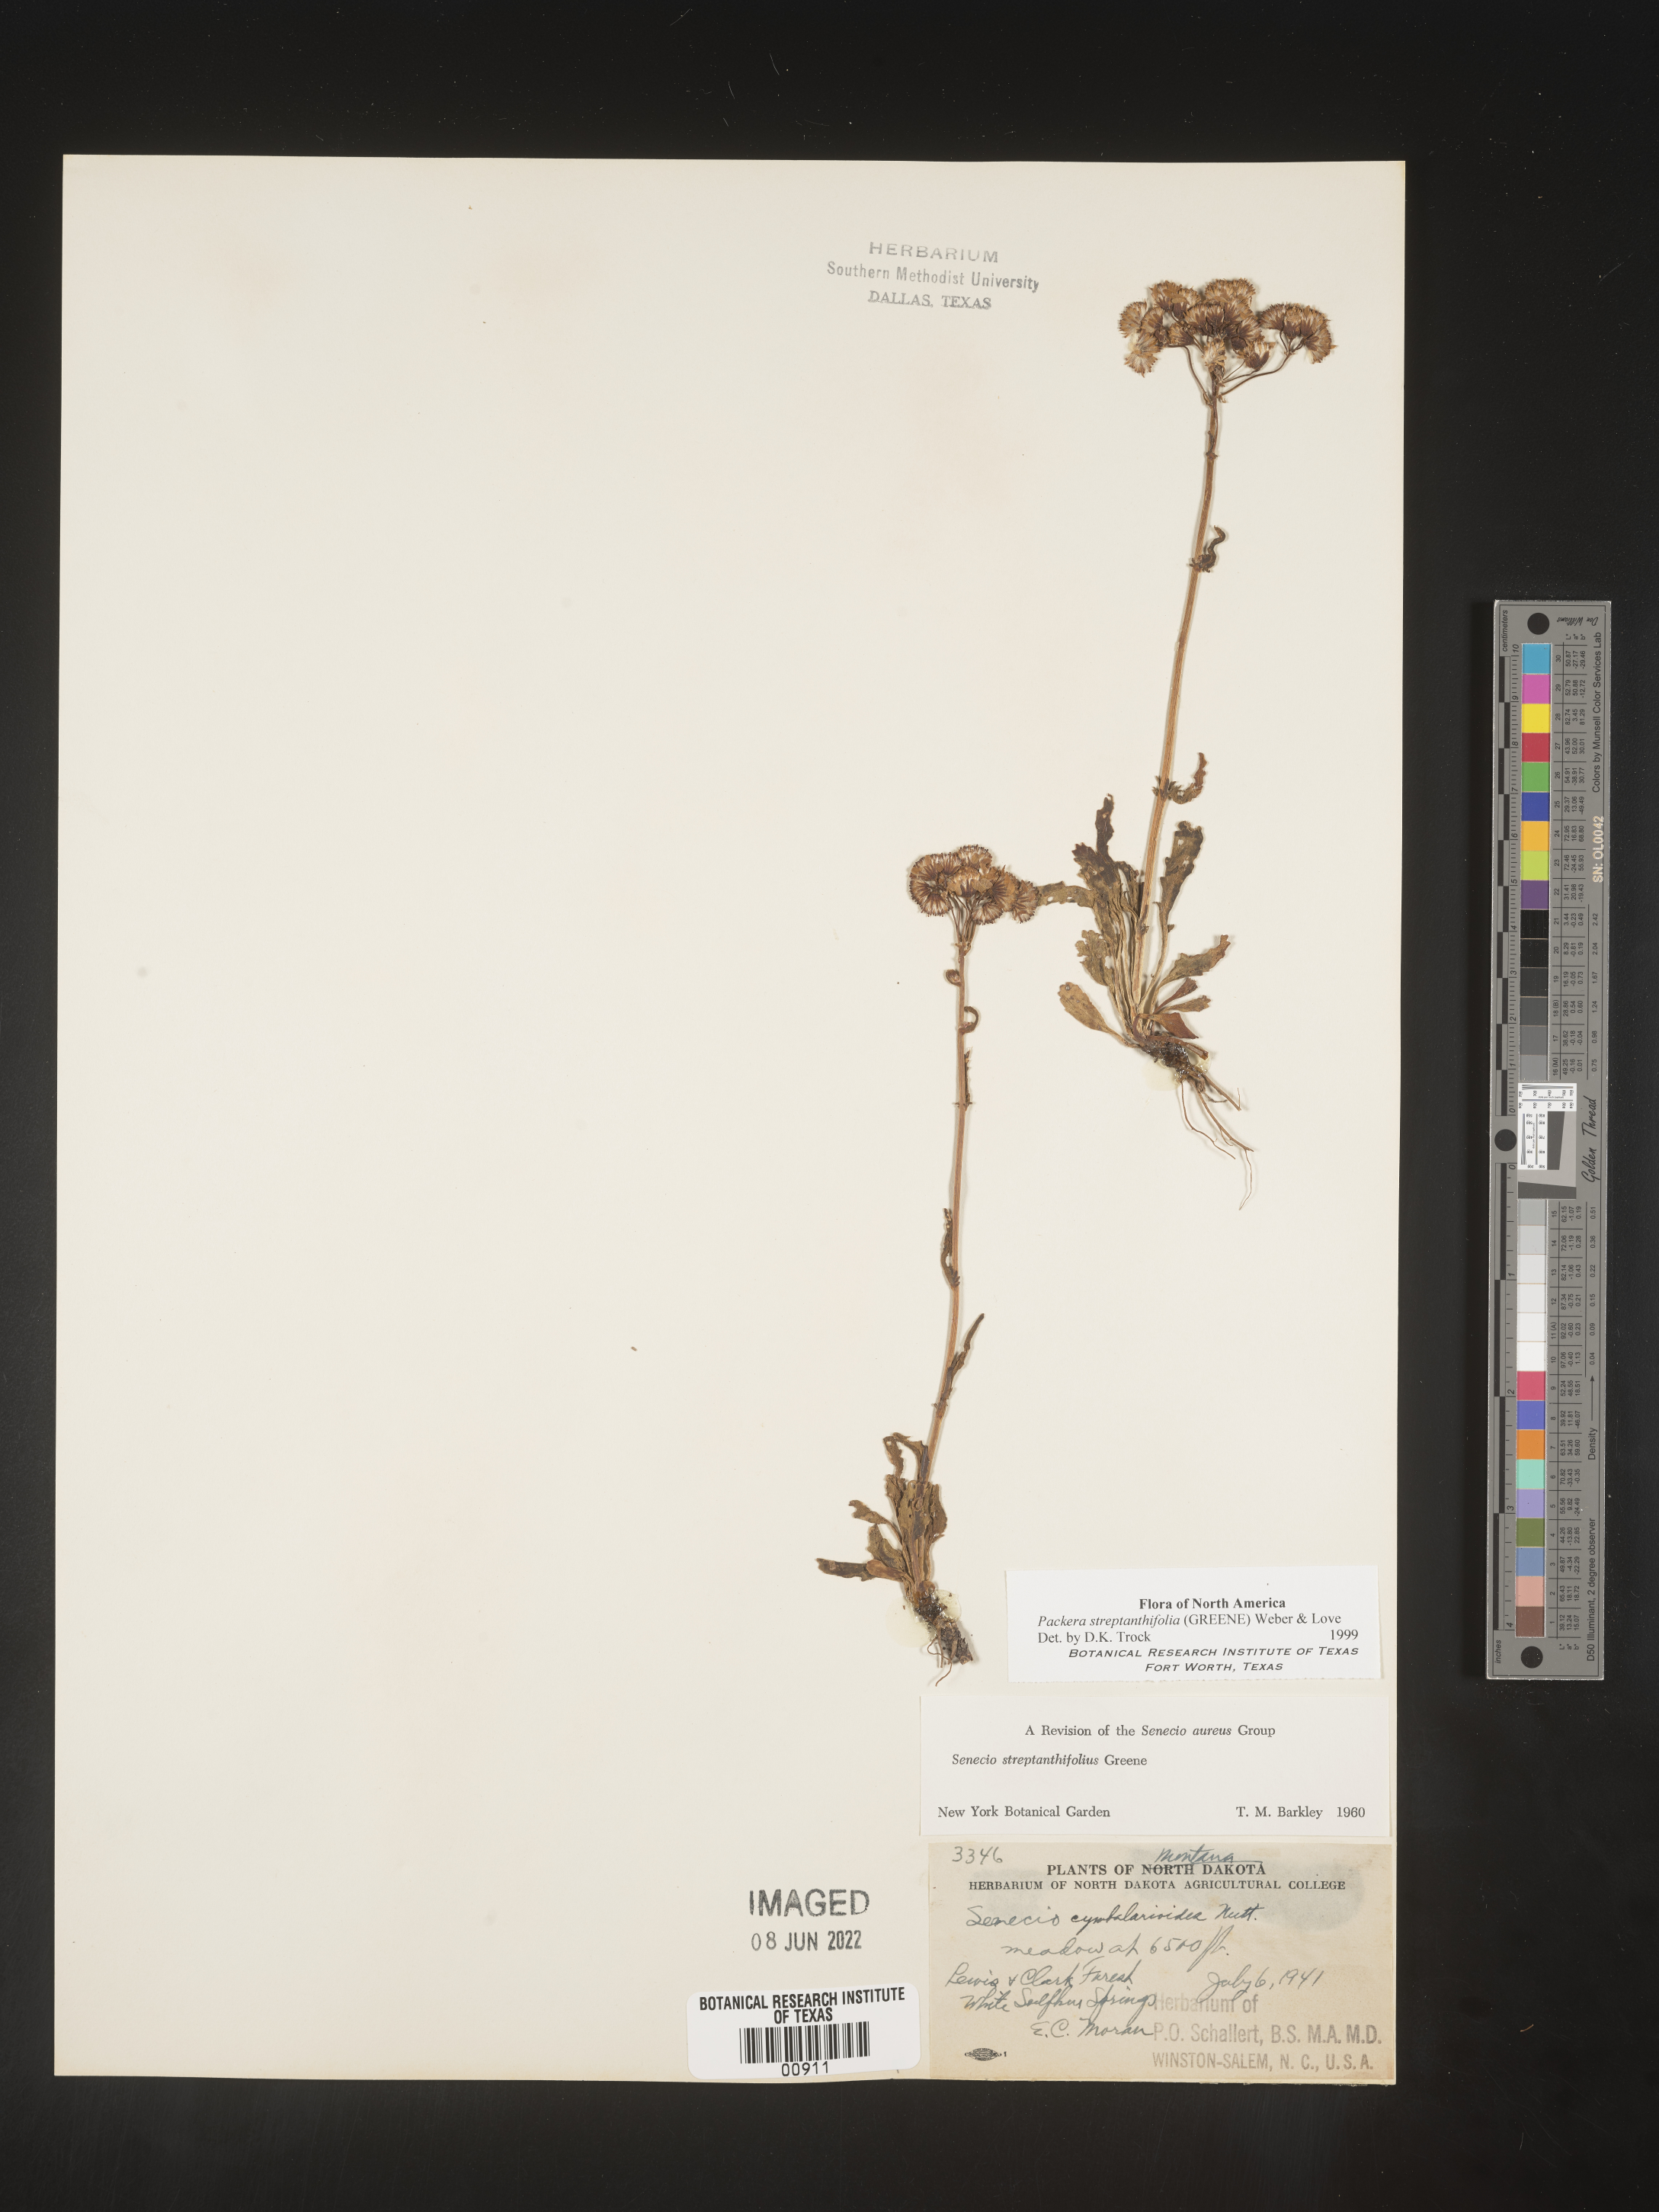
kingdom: Plantae
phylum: Tracheophyta
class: Magnoliopsida
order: Asterales
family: Asteraceae
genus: Packera
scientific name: Packera streptanthifolia
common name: Rocky mountain butterweed
